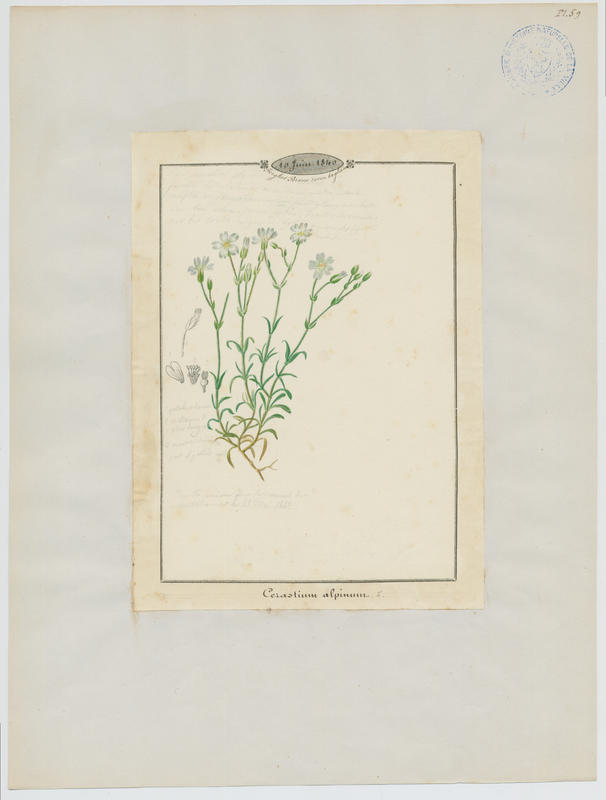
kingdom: Plantae
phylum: Tracheophyta
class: Magnoliopsida
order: Caryophyllales
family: Caryophyllaceae
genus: Cerastium
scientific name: Cerastium alpinum
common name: Alpine mouse-ear
